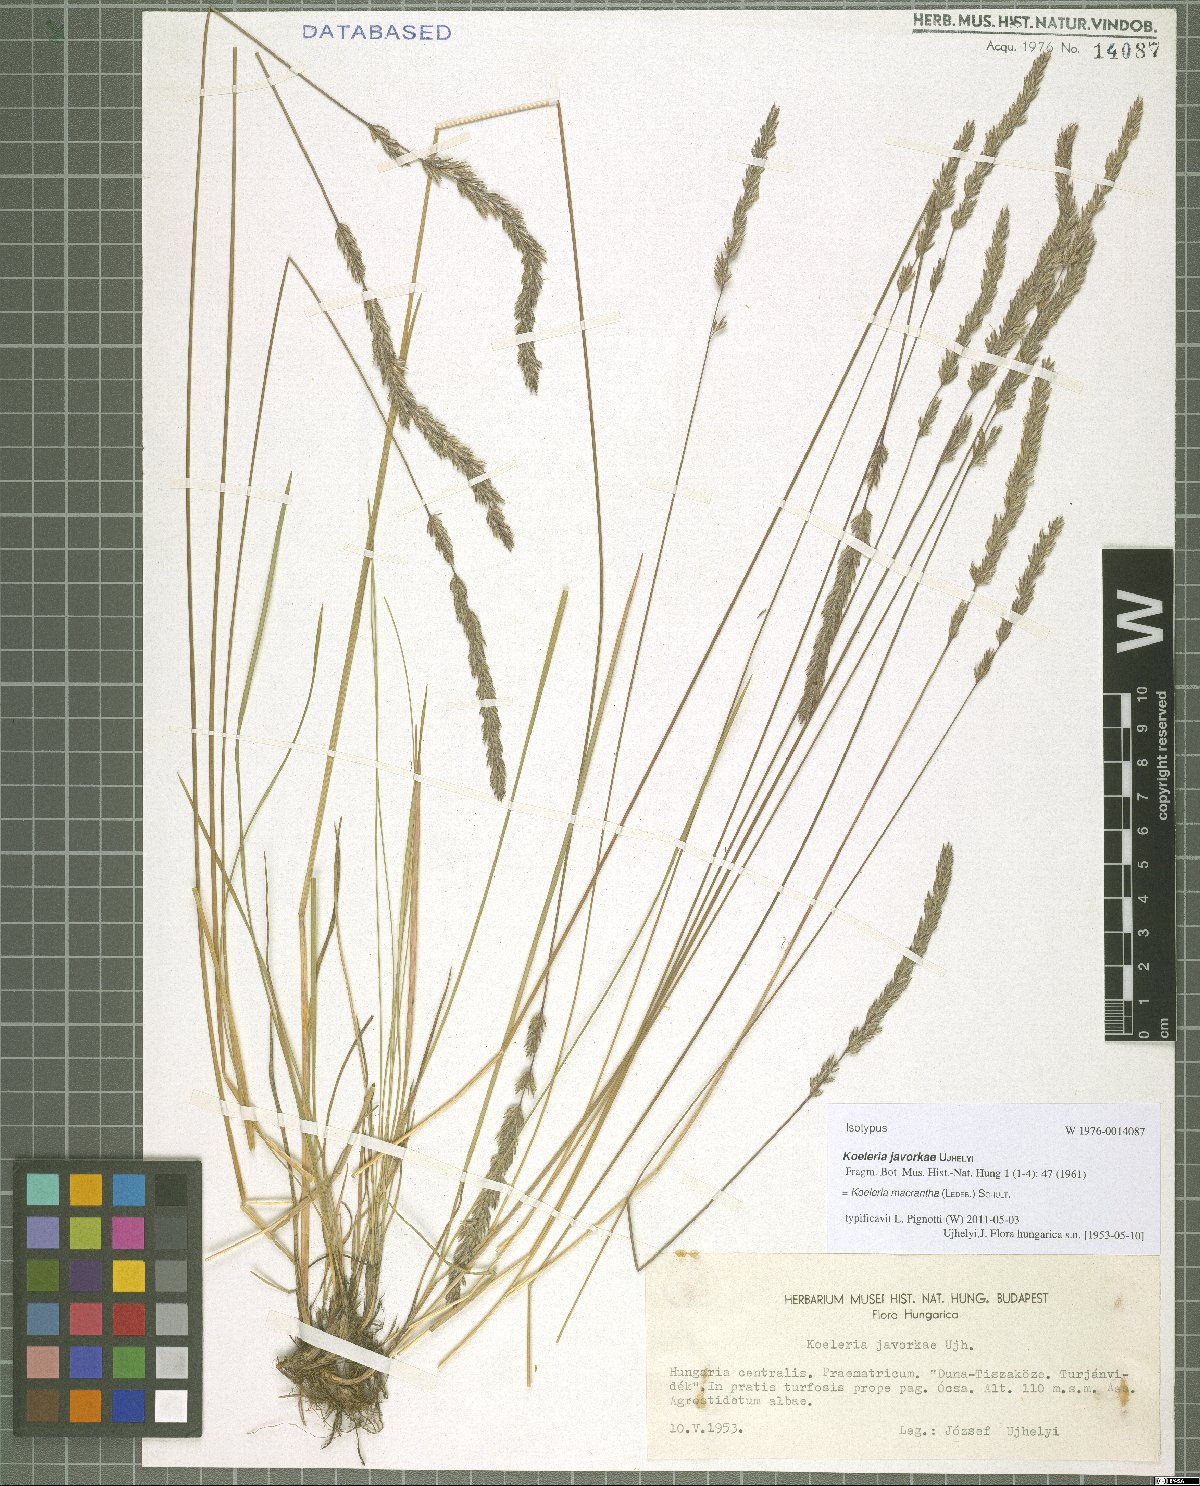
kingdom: Plantae
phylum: Tracheophyta
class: Liliopsida
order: Poales
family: Poaceae
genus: Koeleria
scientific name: Koeleria macrantha
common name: Crested hair-grass
